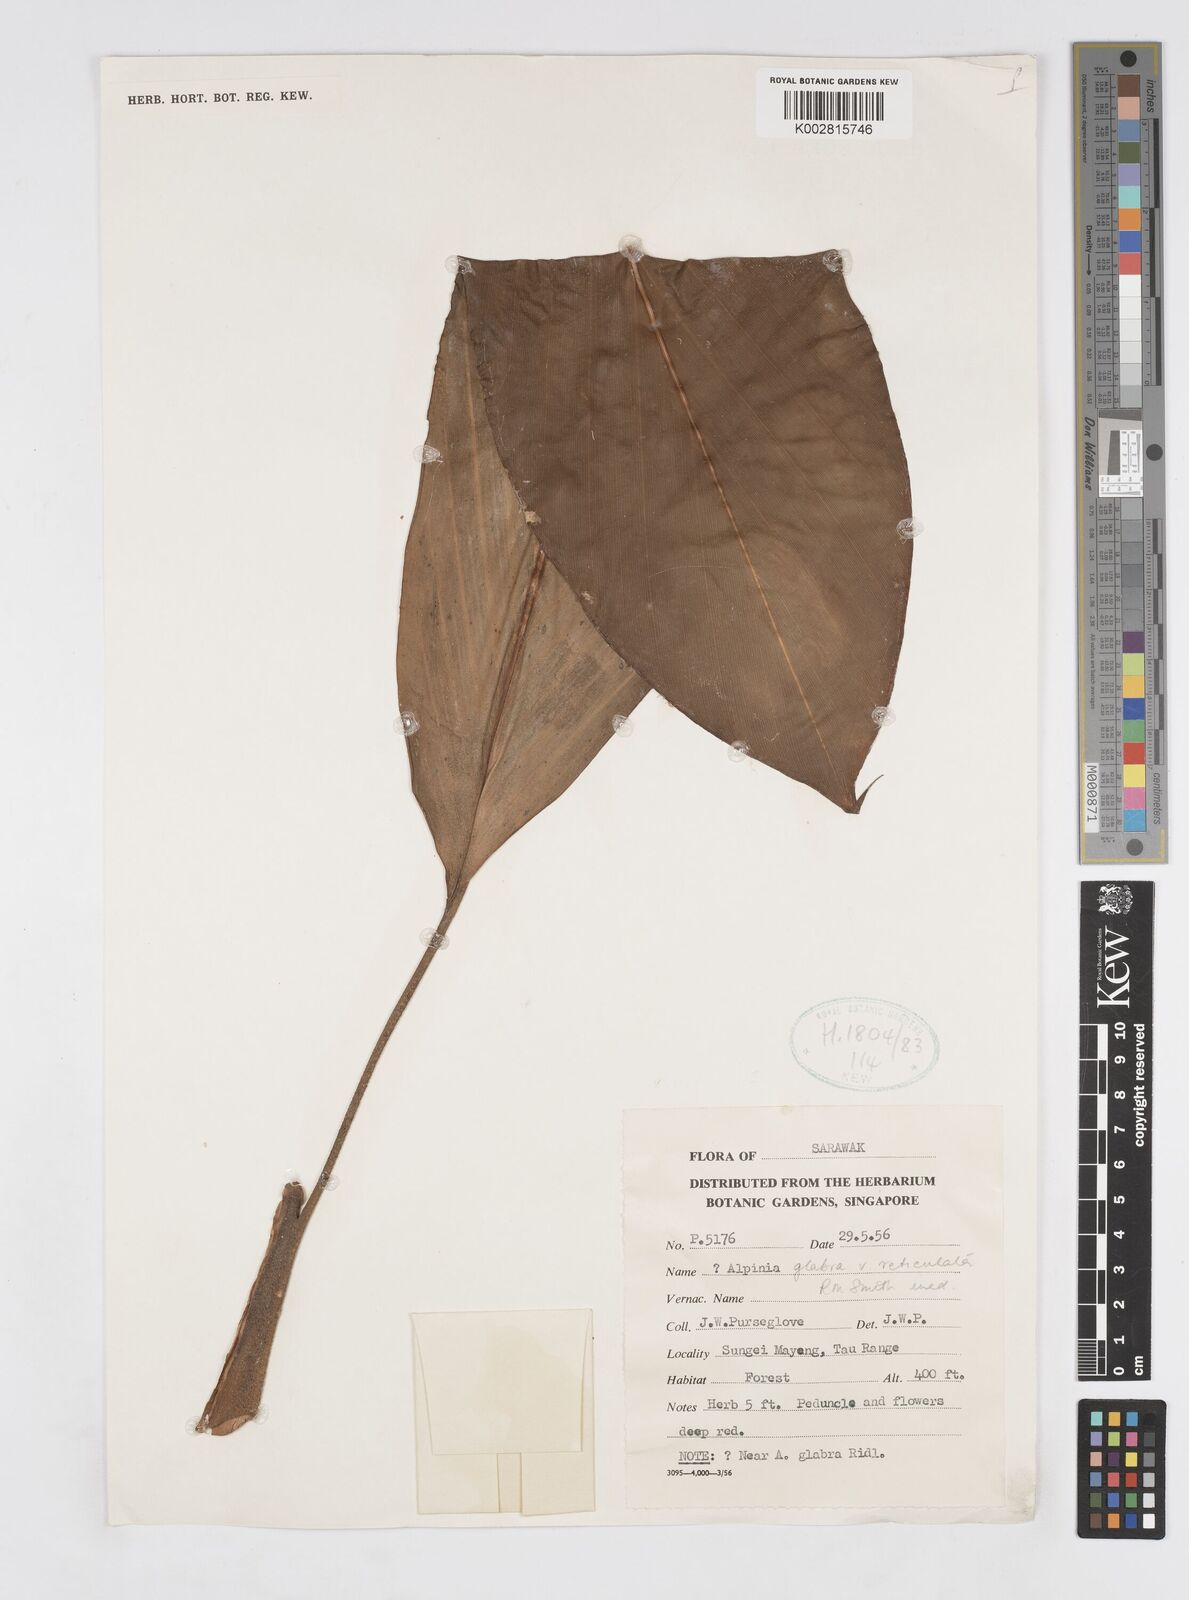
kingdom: Plantae
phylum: Tracheophyta
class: Liliopsida
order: Zingiberales
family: Zingiberaceae
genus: Alpinia
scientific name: Alpinia glabra
